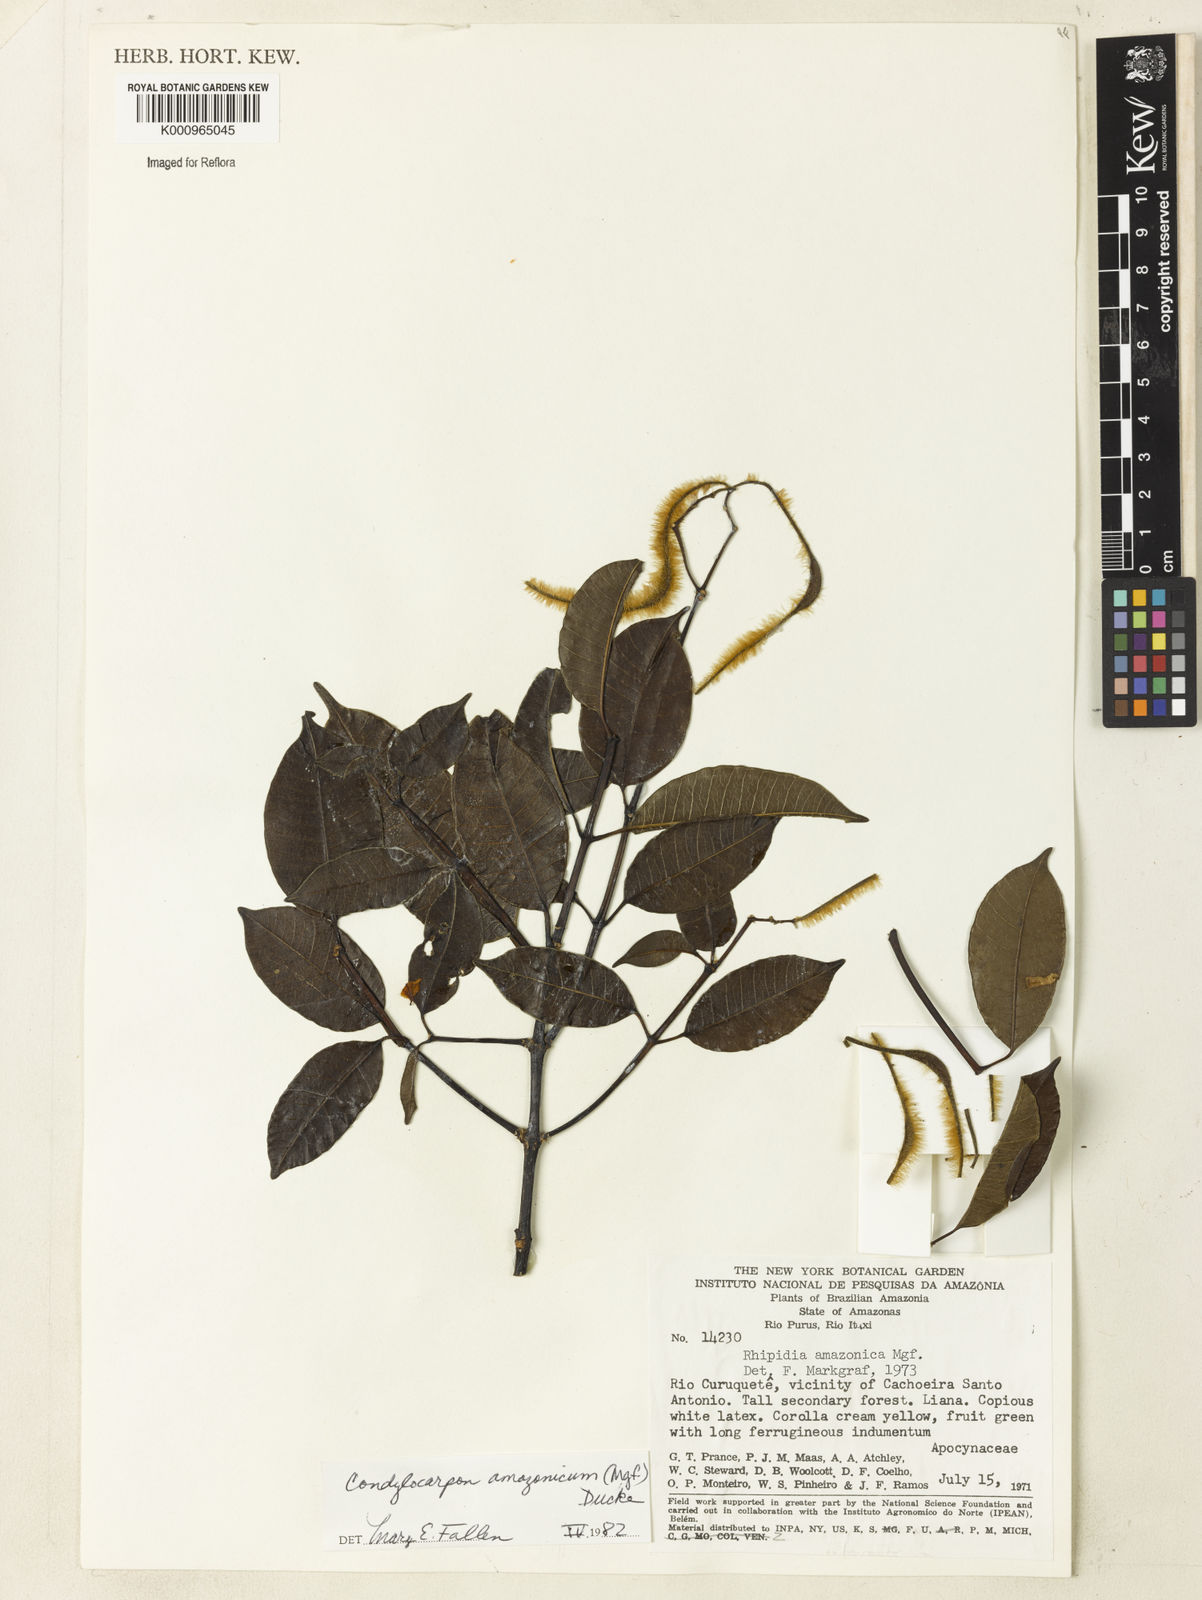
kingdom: Plantae
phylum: Tracheophyta
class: Magnoliopsida
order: Gentianales
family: Apocynaceae
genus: Condylocarpon
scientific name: Condylocarpon amazonicum
